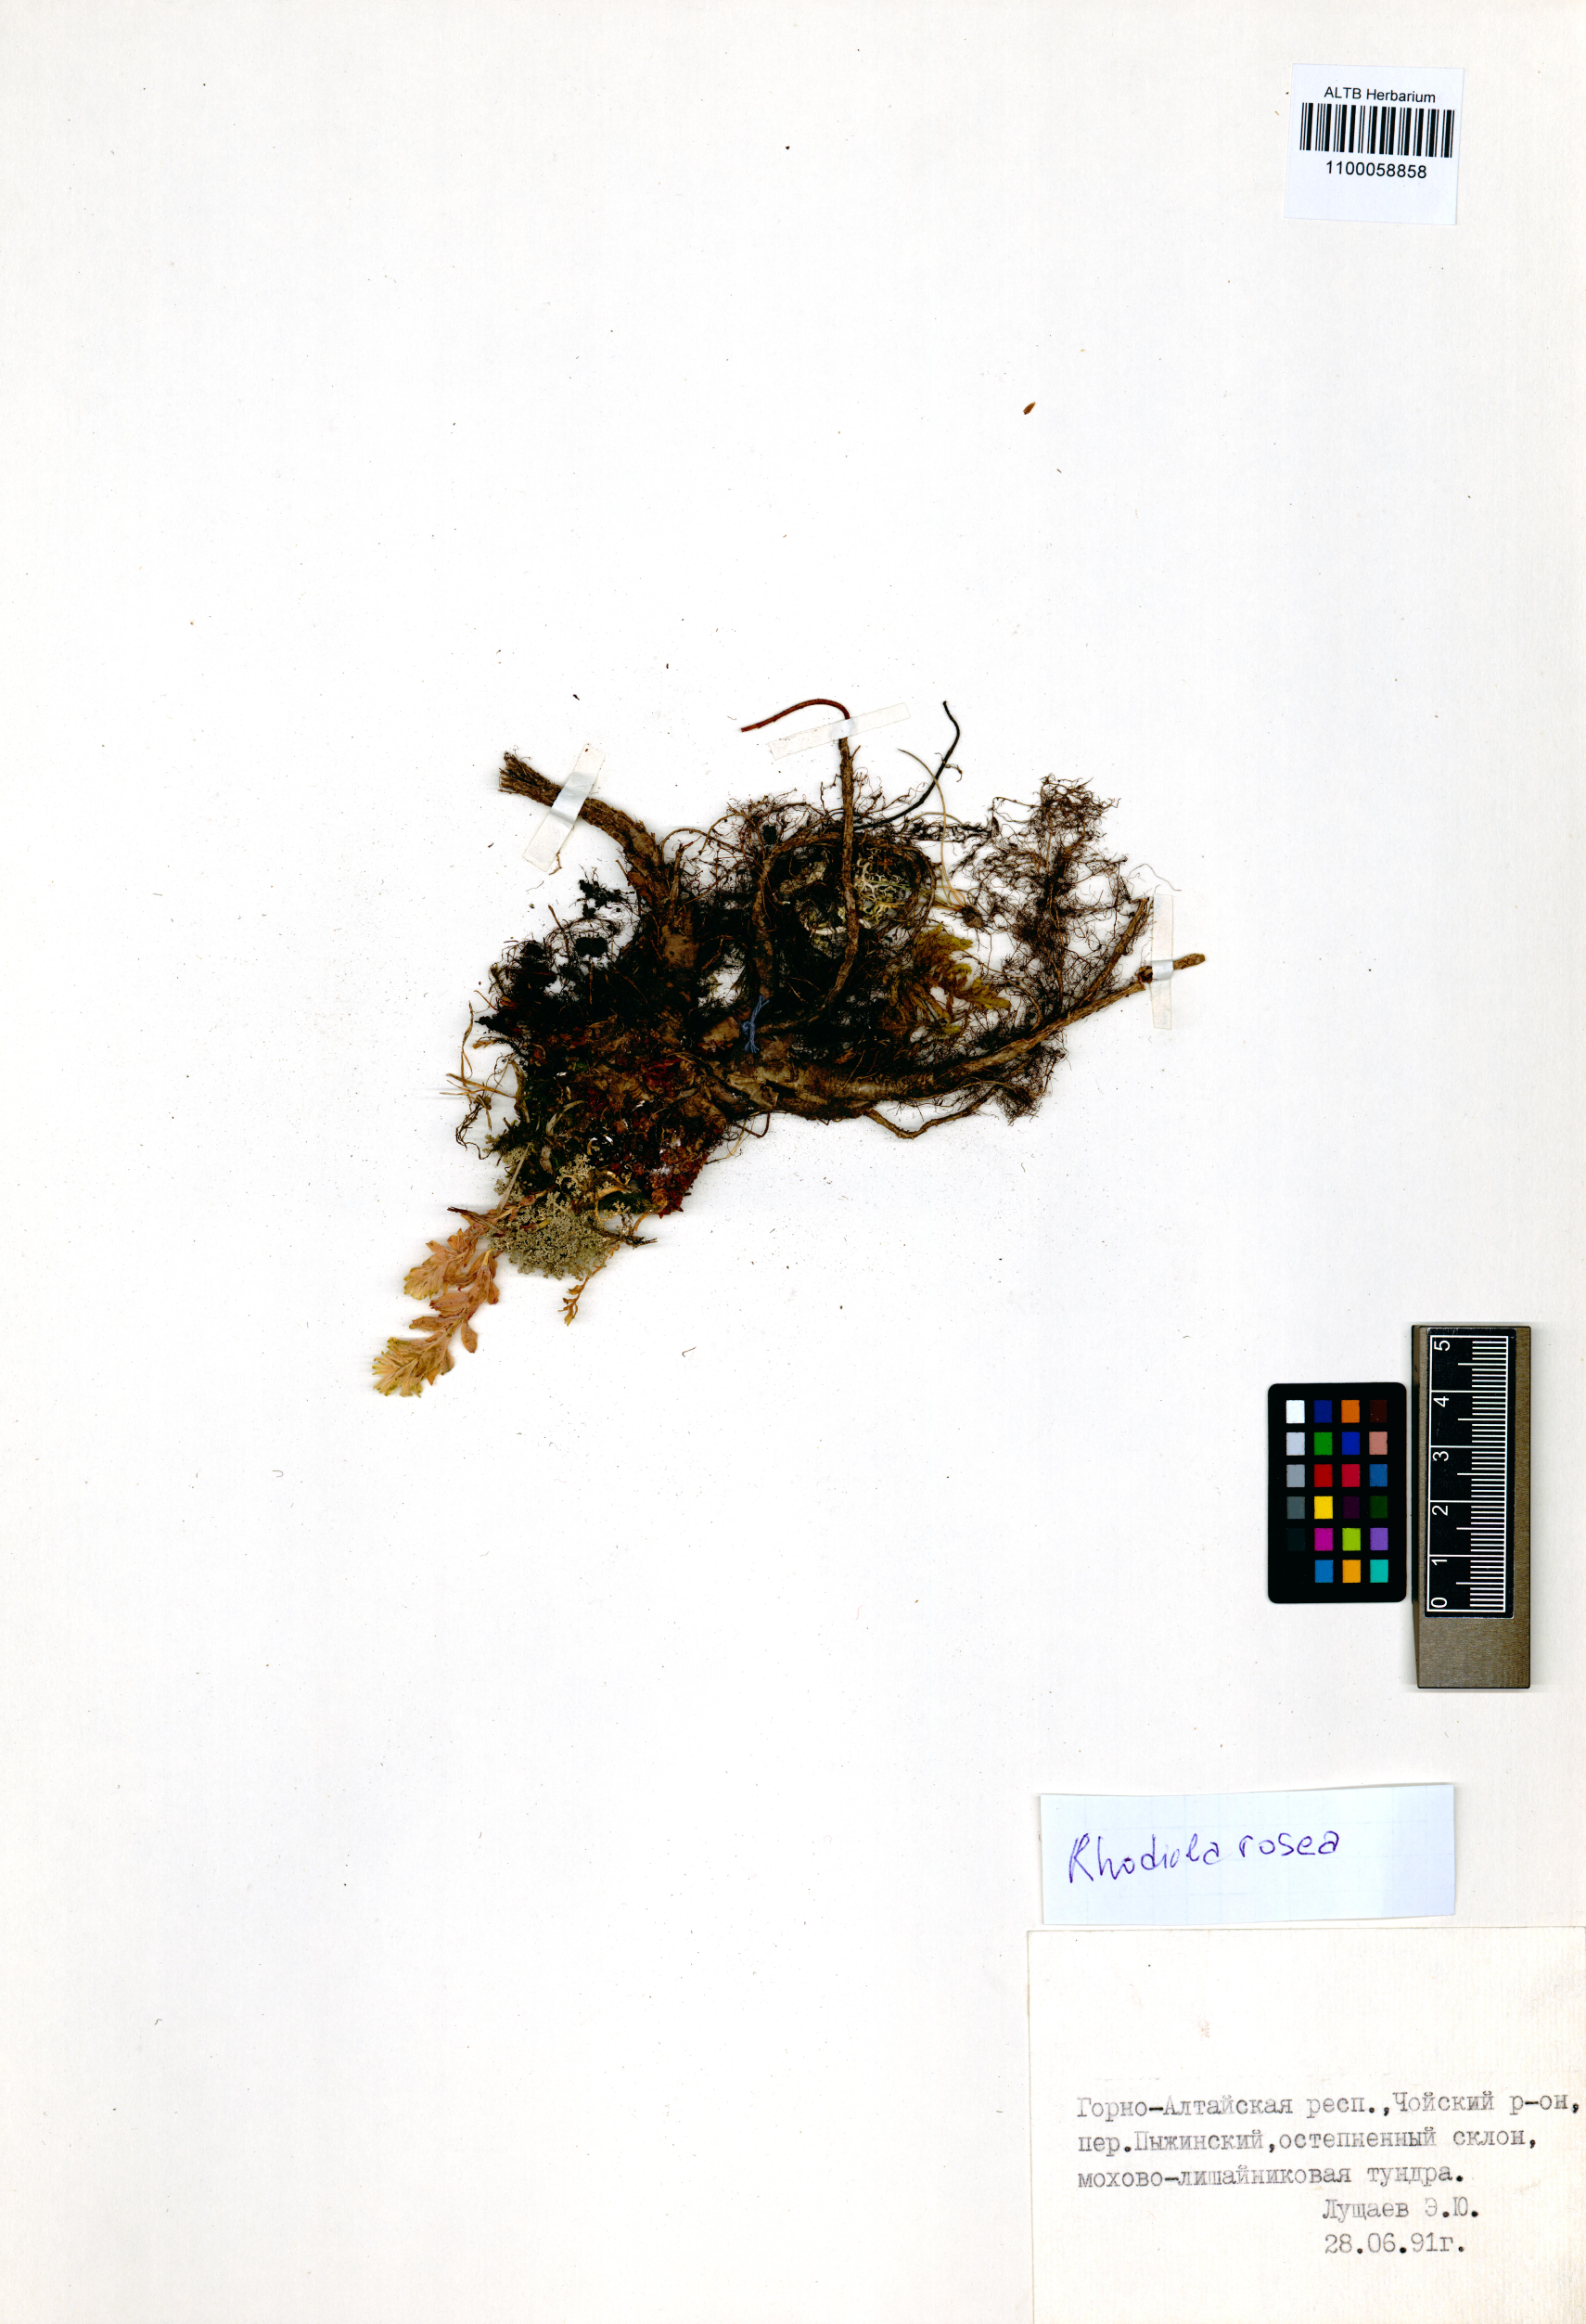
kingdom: Plantae
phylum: Tracheophyta
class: Magnoliopsida
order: Saxifragales
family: Crassulaceae
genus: Rhodiola
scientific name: Rhodiola rosea
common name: Roseroot
